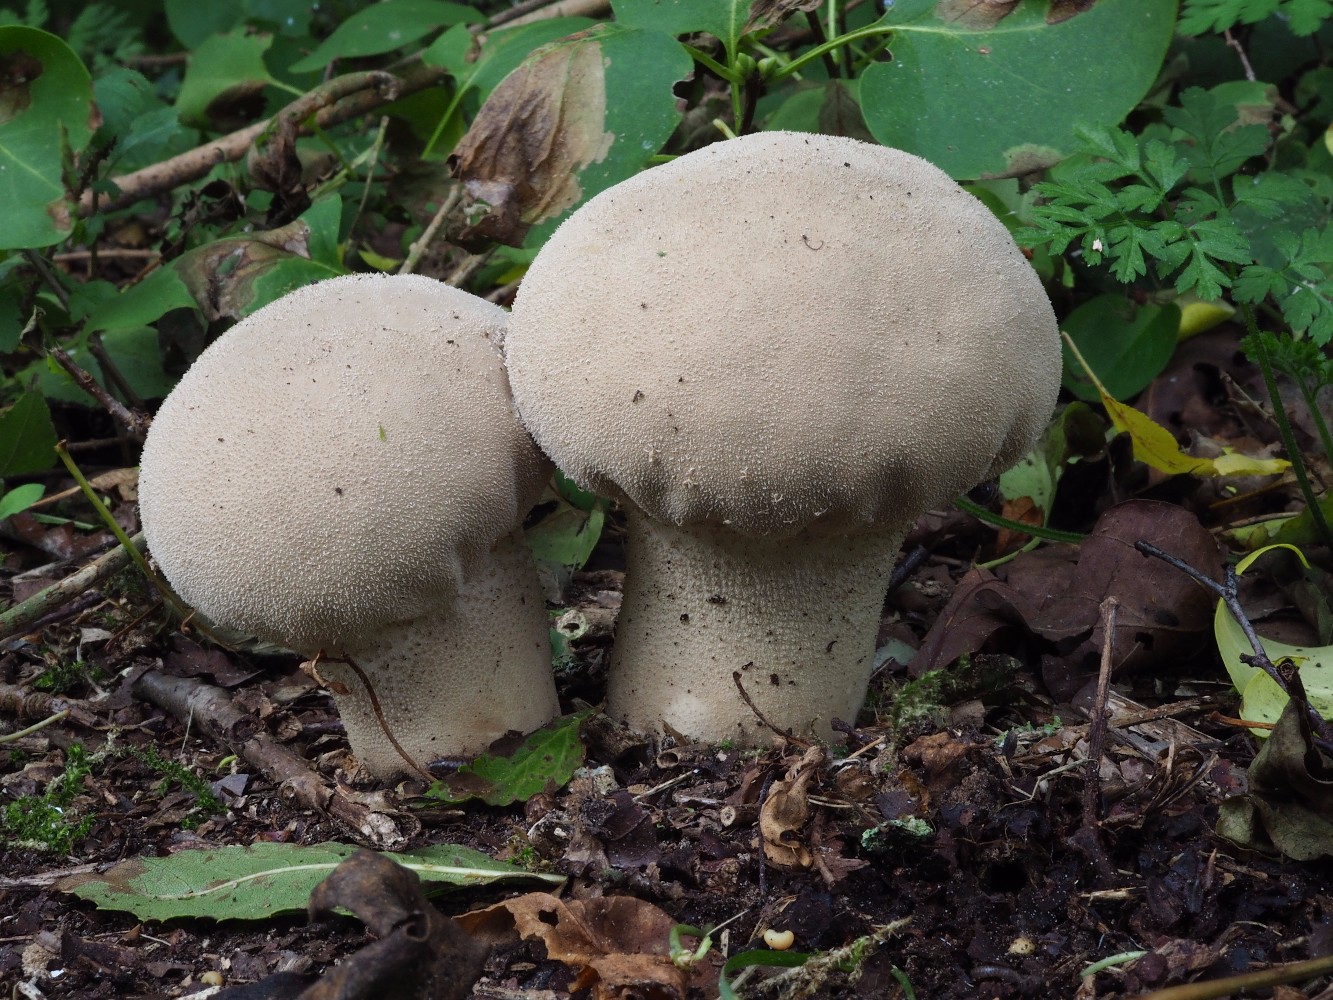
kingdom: Fungi
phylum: Basidiomycota
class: Agaricomycetes
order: Agaricales
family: Lycoperdaceae
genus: Lycoperdon
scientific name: Lycoperdon excipuliforme
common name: højstokket støvbold
